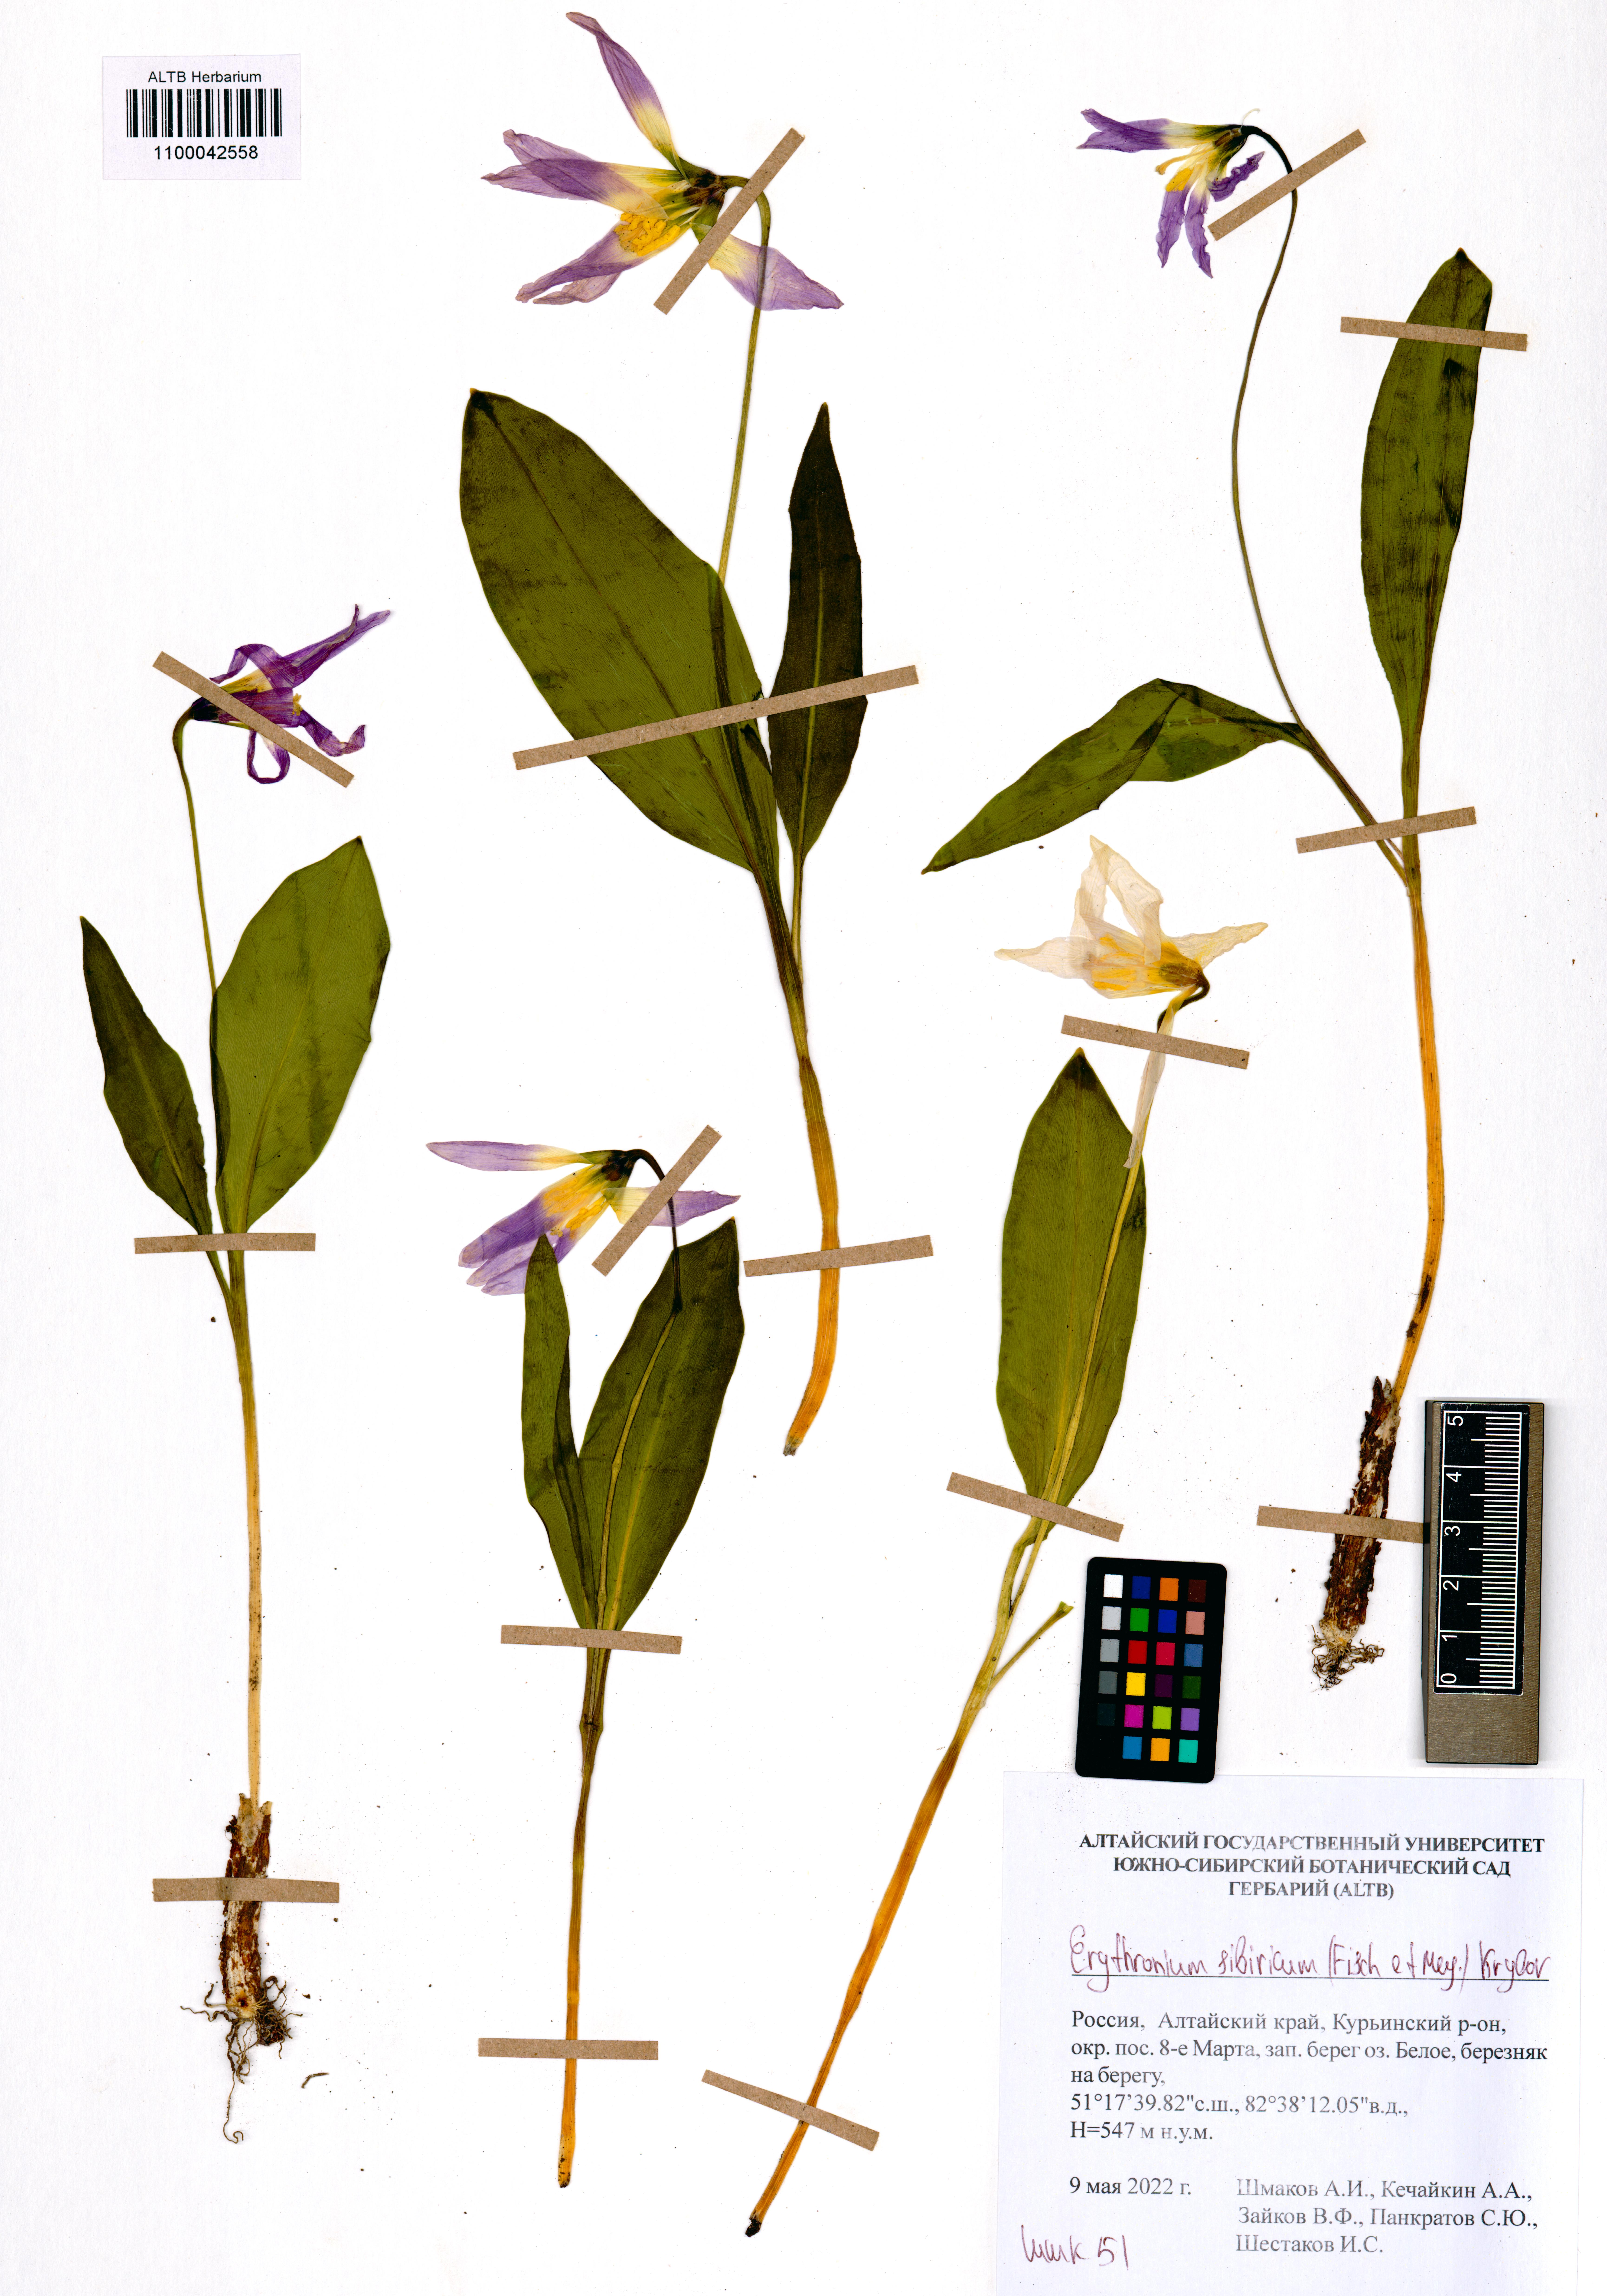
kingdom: Plantae
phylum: Tracheophyta
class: Liliopsida
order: Liliales
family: Liliaceae
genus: Erythronium
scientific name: Erythronium sibiricum
